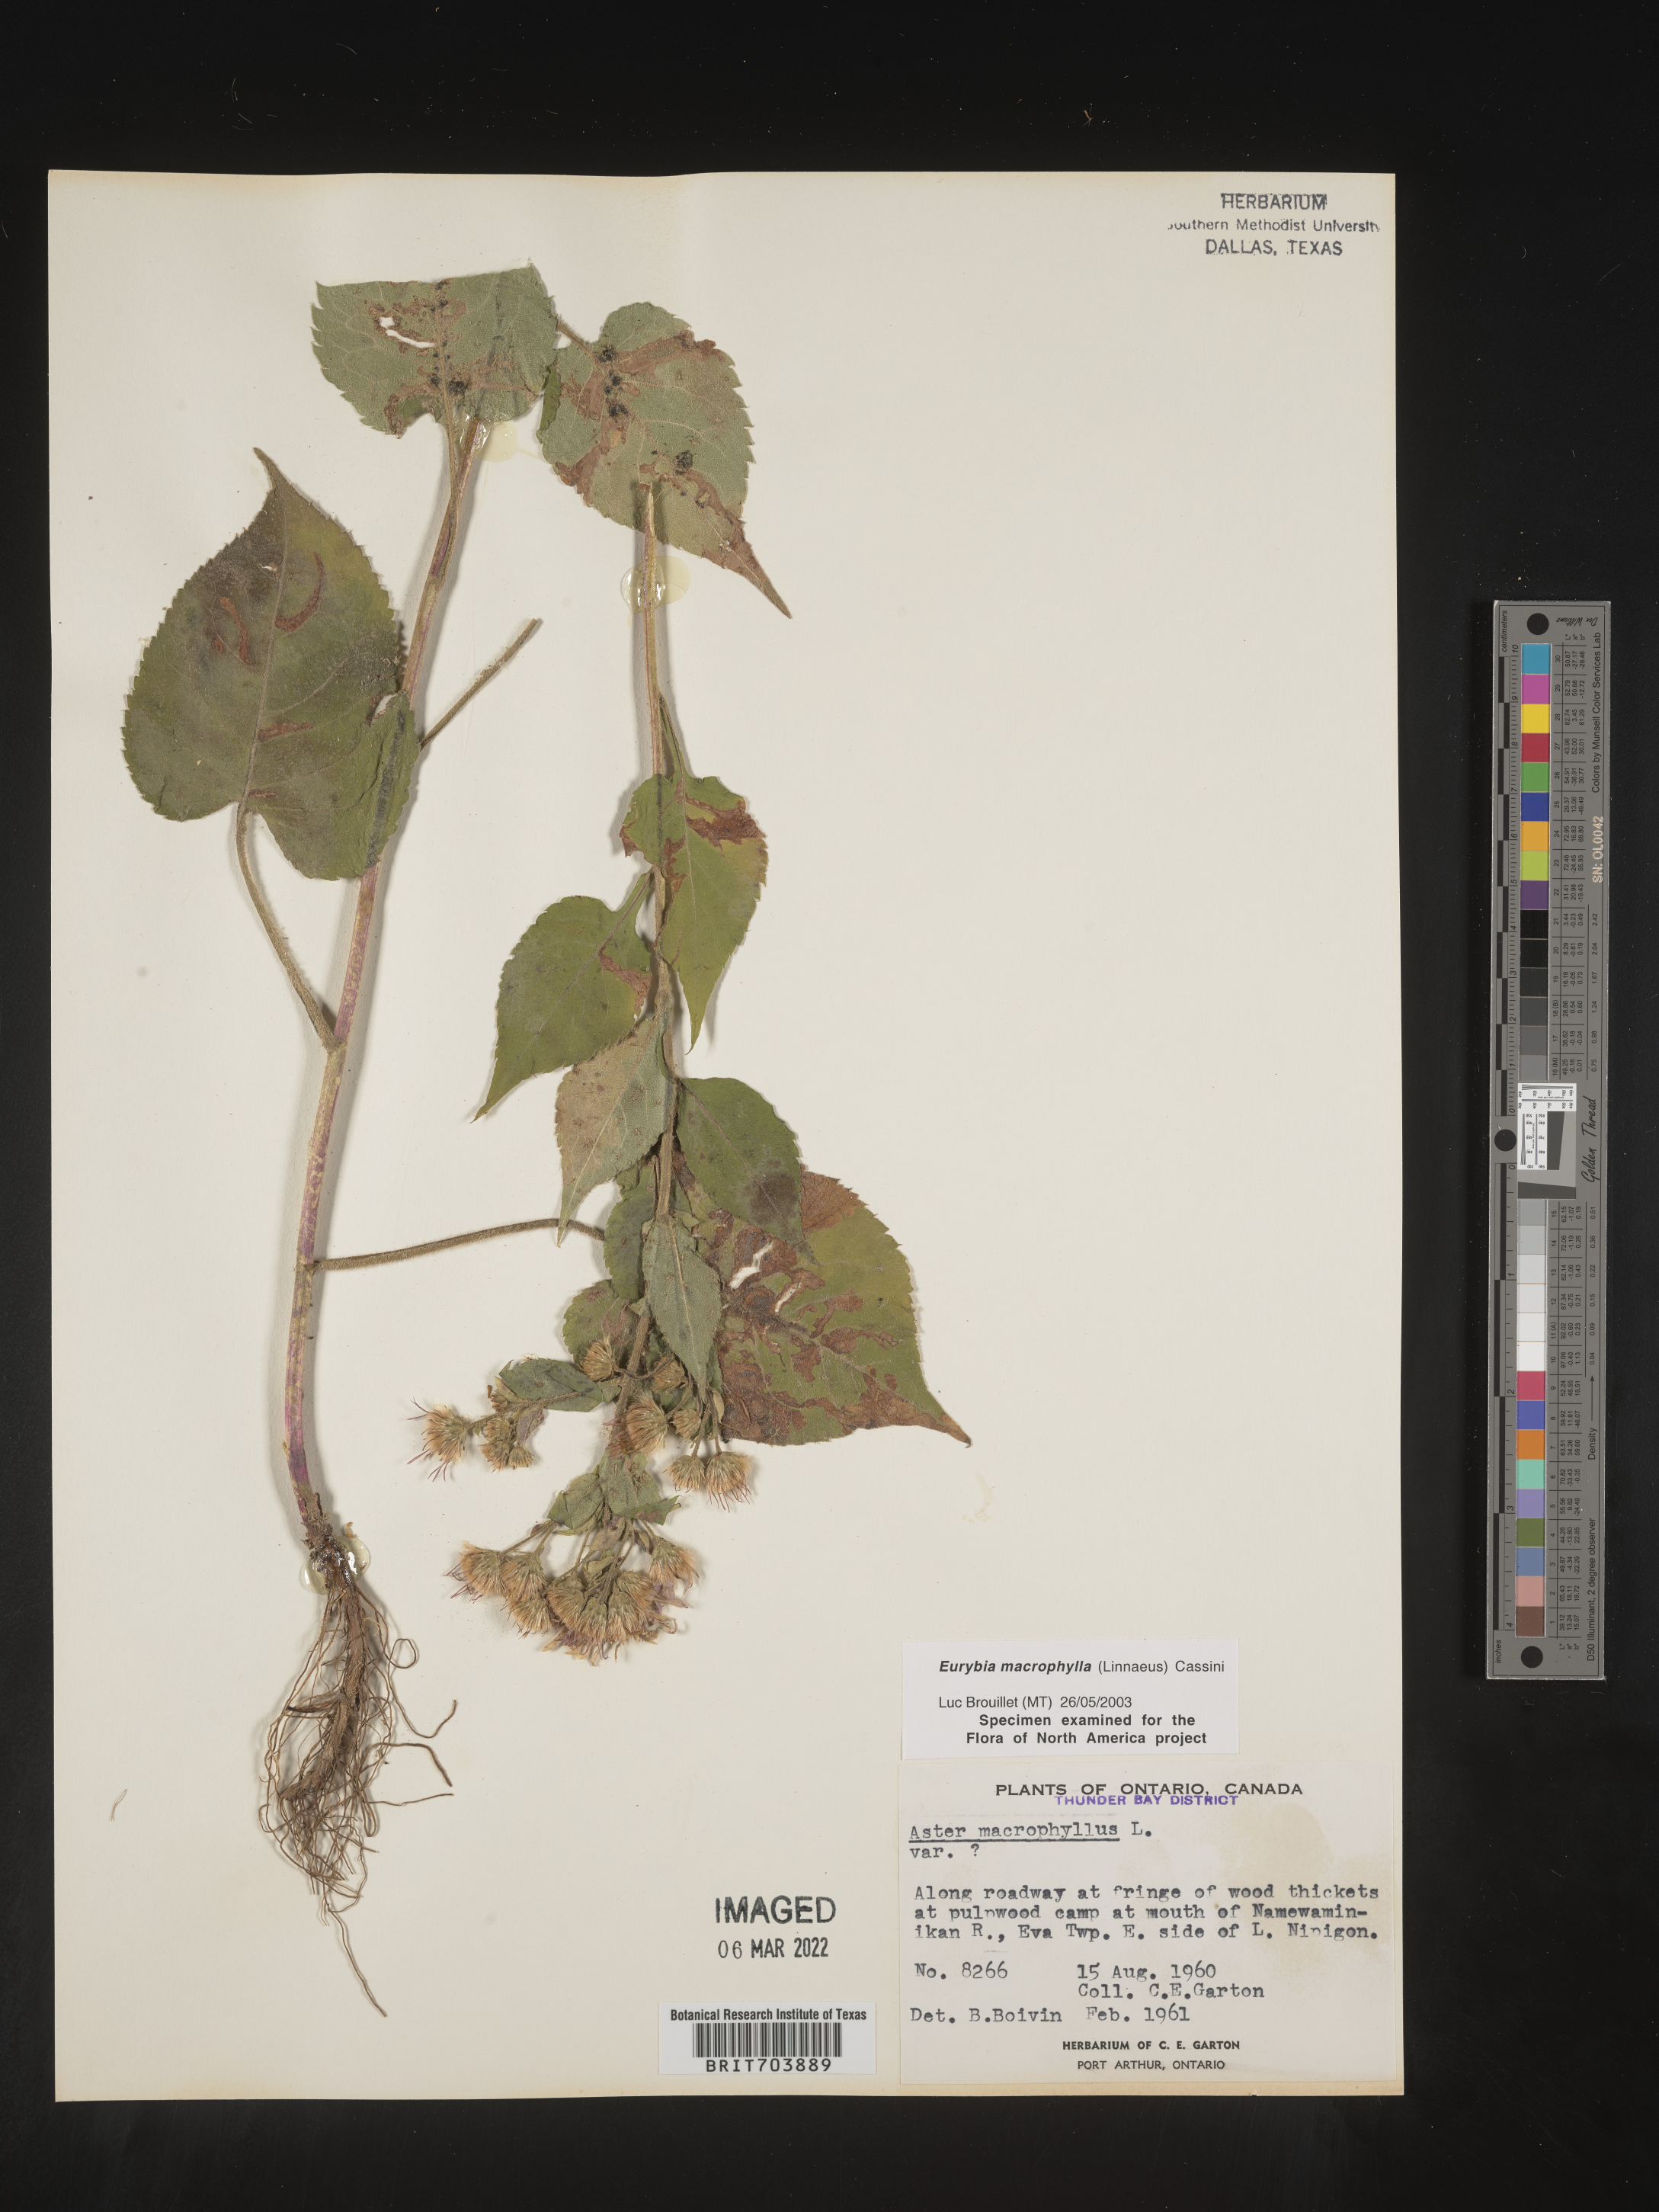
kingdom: Plantae
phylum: Tracheophyta
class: Magnoliopsida
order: Asterales
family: Asteraceae
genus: Eurybia
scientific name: Eurybia macrophylla
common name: Big-leaved aster
